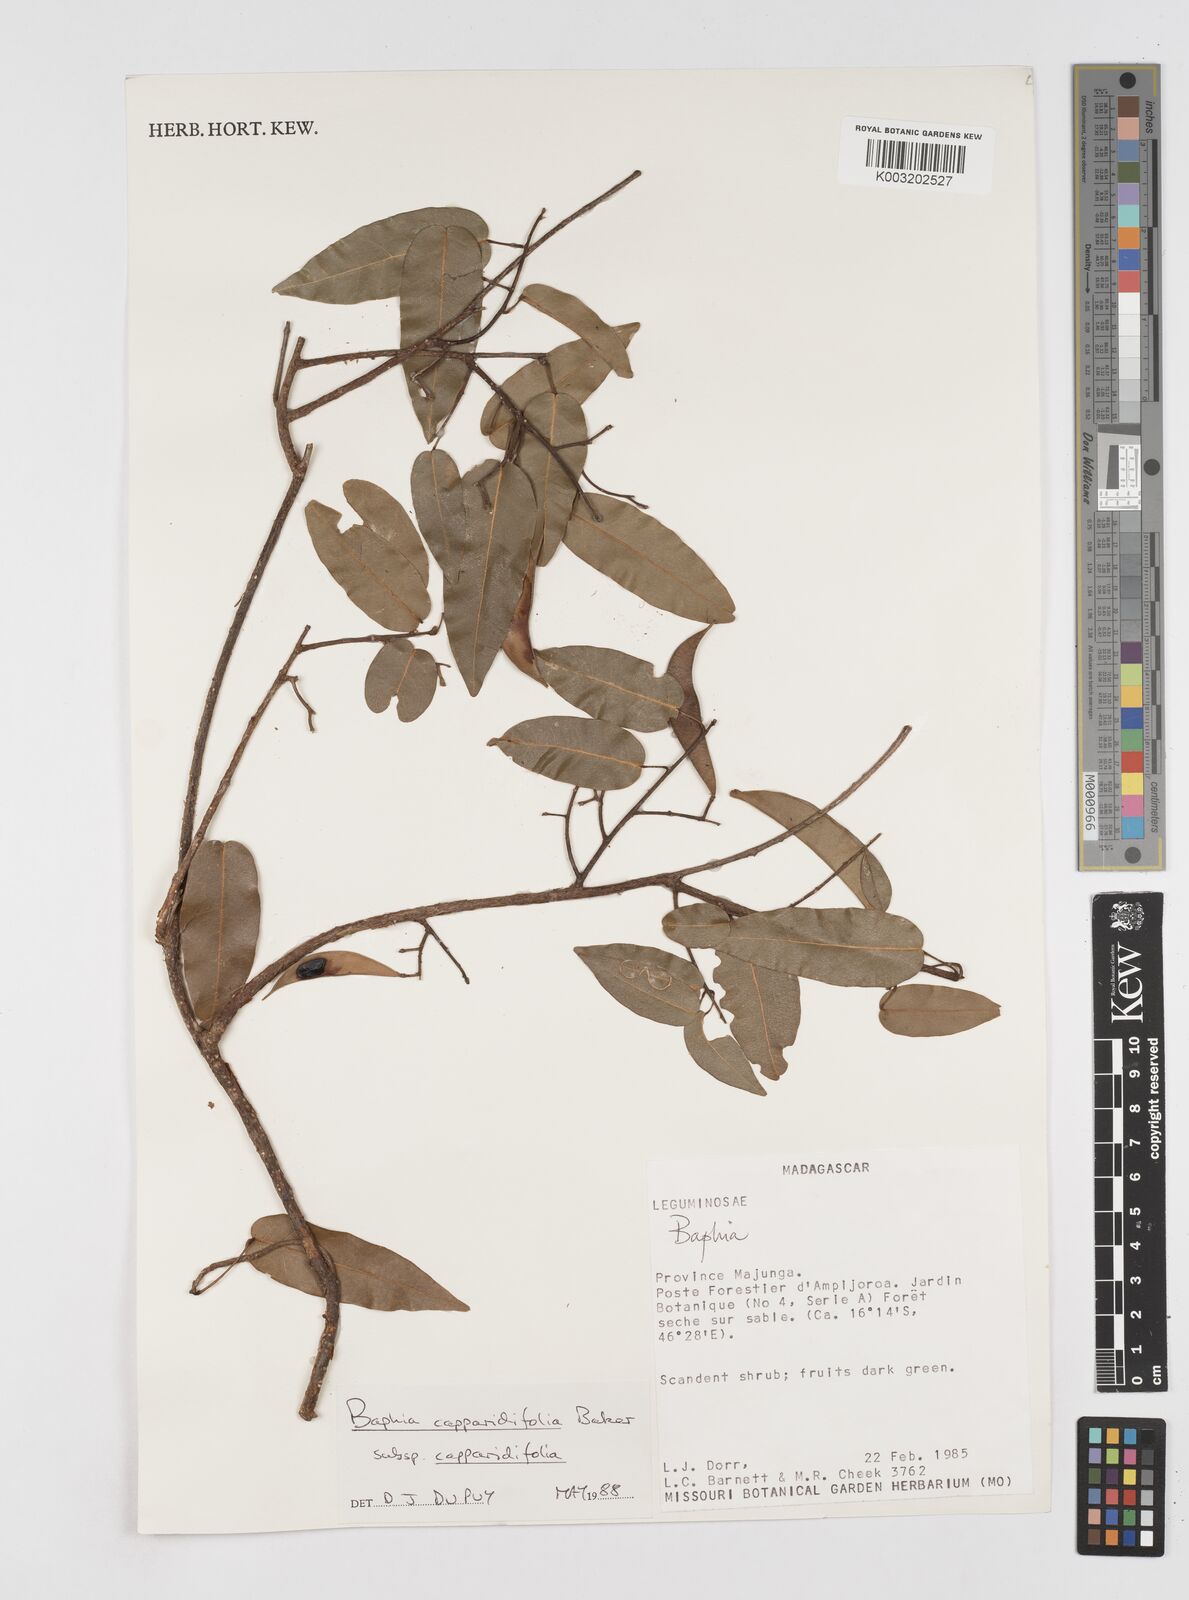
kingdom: Plantae
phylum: Tracheophyta
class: Magnoliopsida
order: Fabales
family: Fabaceae
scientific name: Fabaceae
